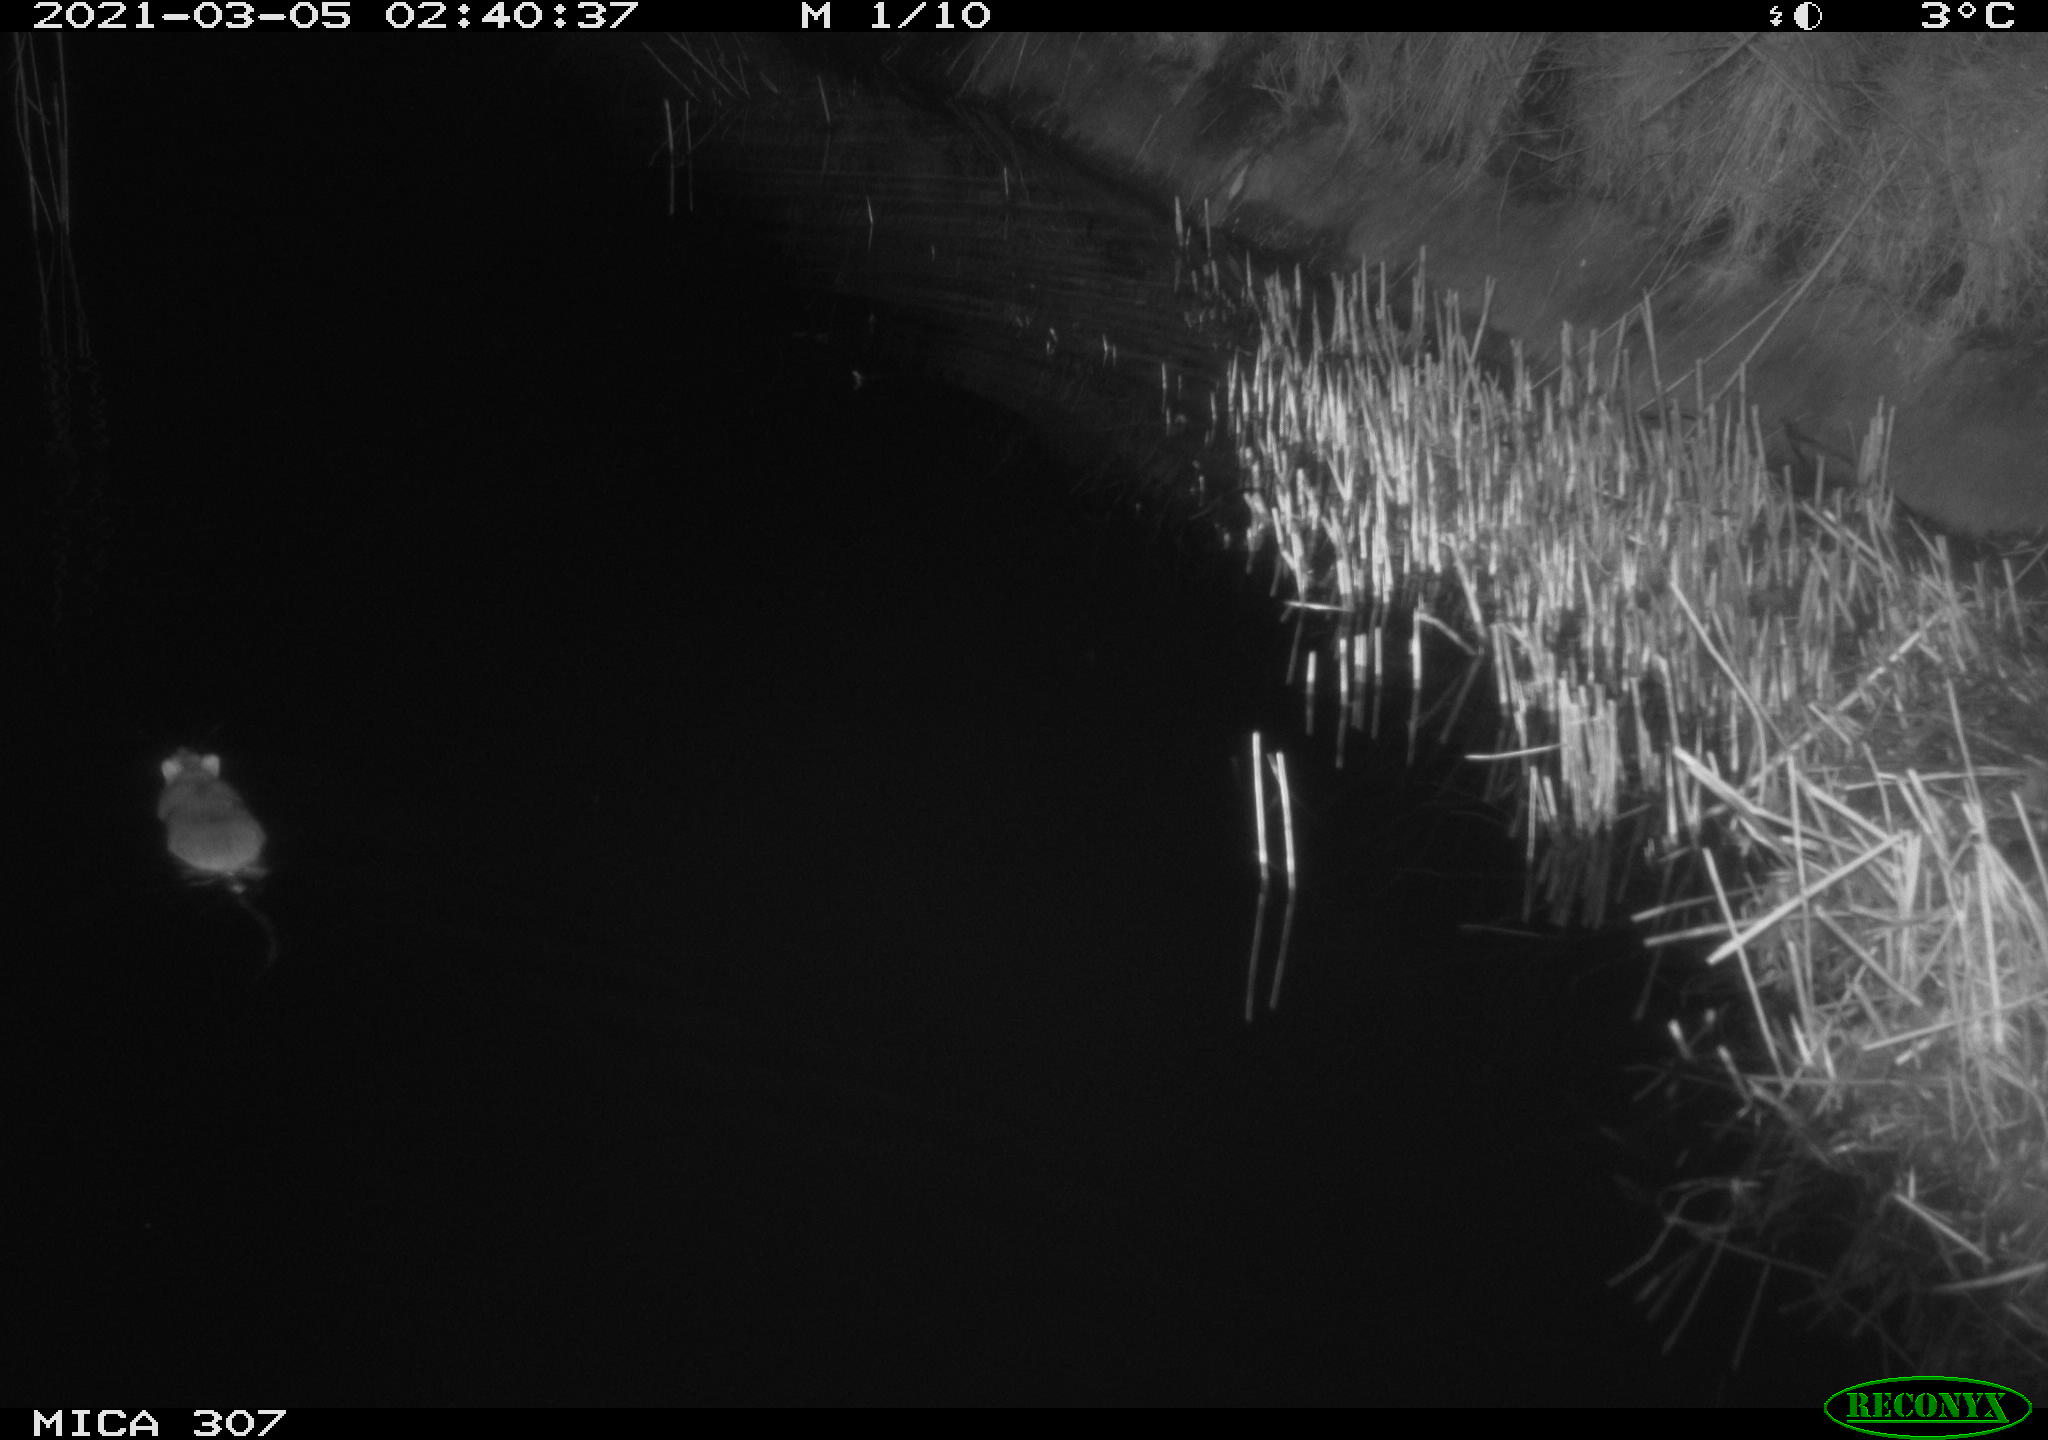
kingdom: Animalia
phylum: Chordata
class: Mammalia
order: Rodentia
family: Cricetidae
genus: Ondatra
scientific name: Ondatra zibethicus
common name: Muskrat
